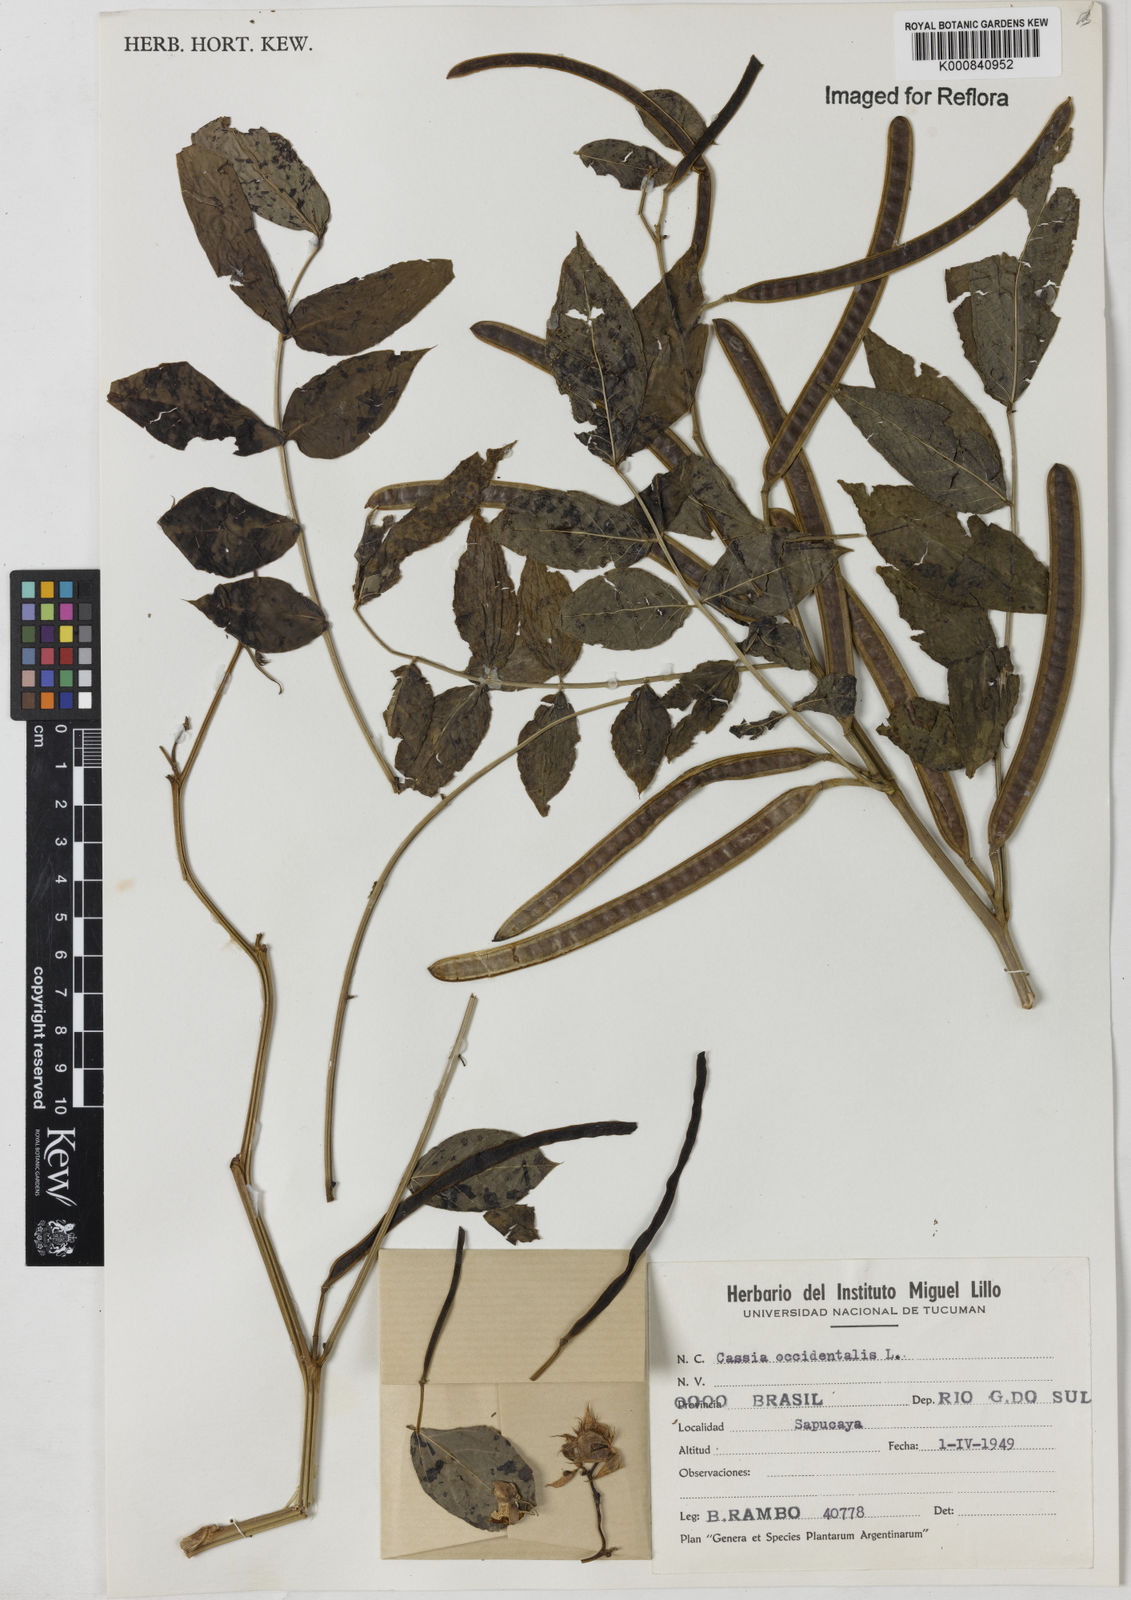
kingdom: Plantae
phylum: Tracheophyta
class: Magnoliopsida
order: Fabales
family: Fabaceae
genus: Senna
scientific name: Senna occidentalis
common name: Septicweed
